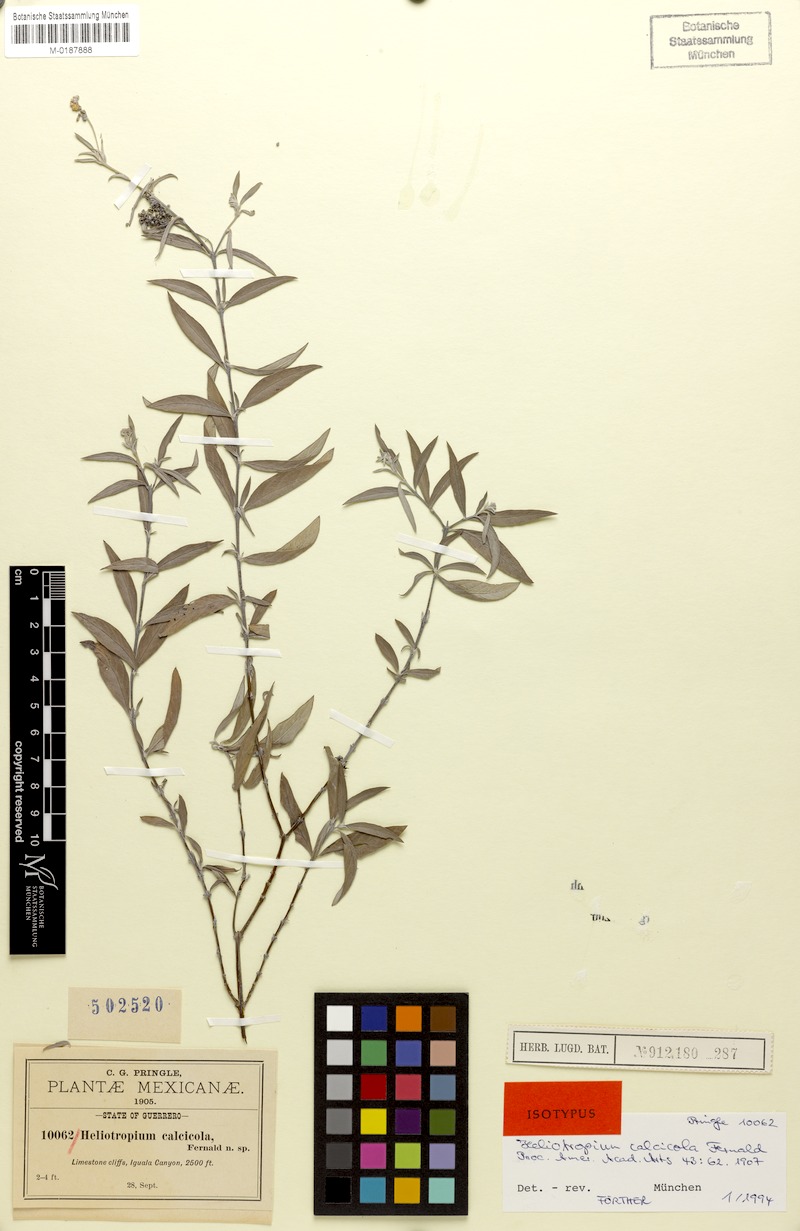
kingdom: Plantae
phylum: Tracheophyta
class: Magnoliopsida
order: Boraginales
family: Heliotropiaceae
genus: Euploca
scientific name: Euploca mexicana
